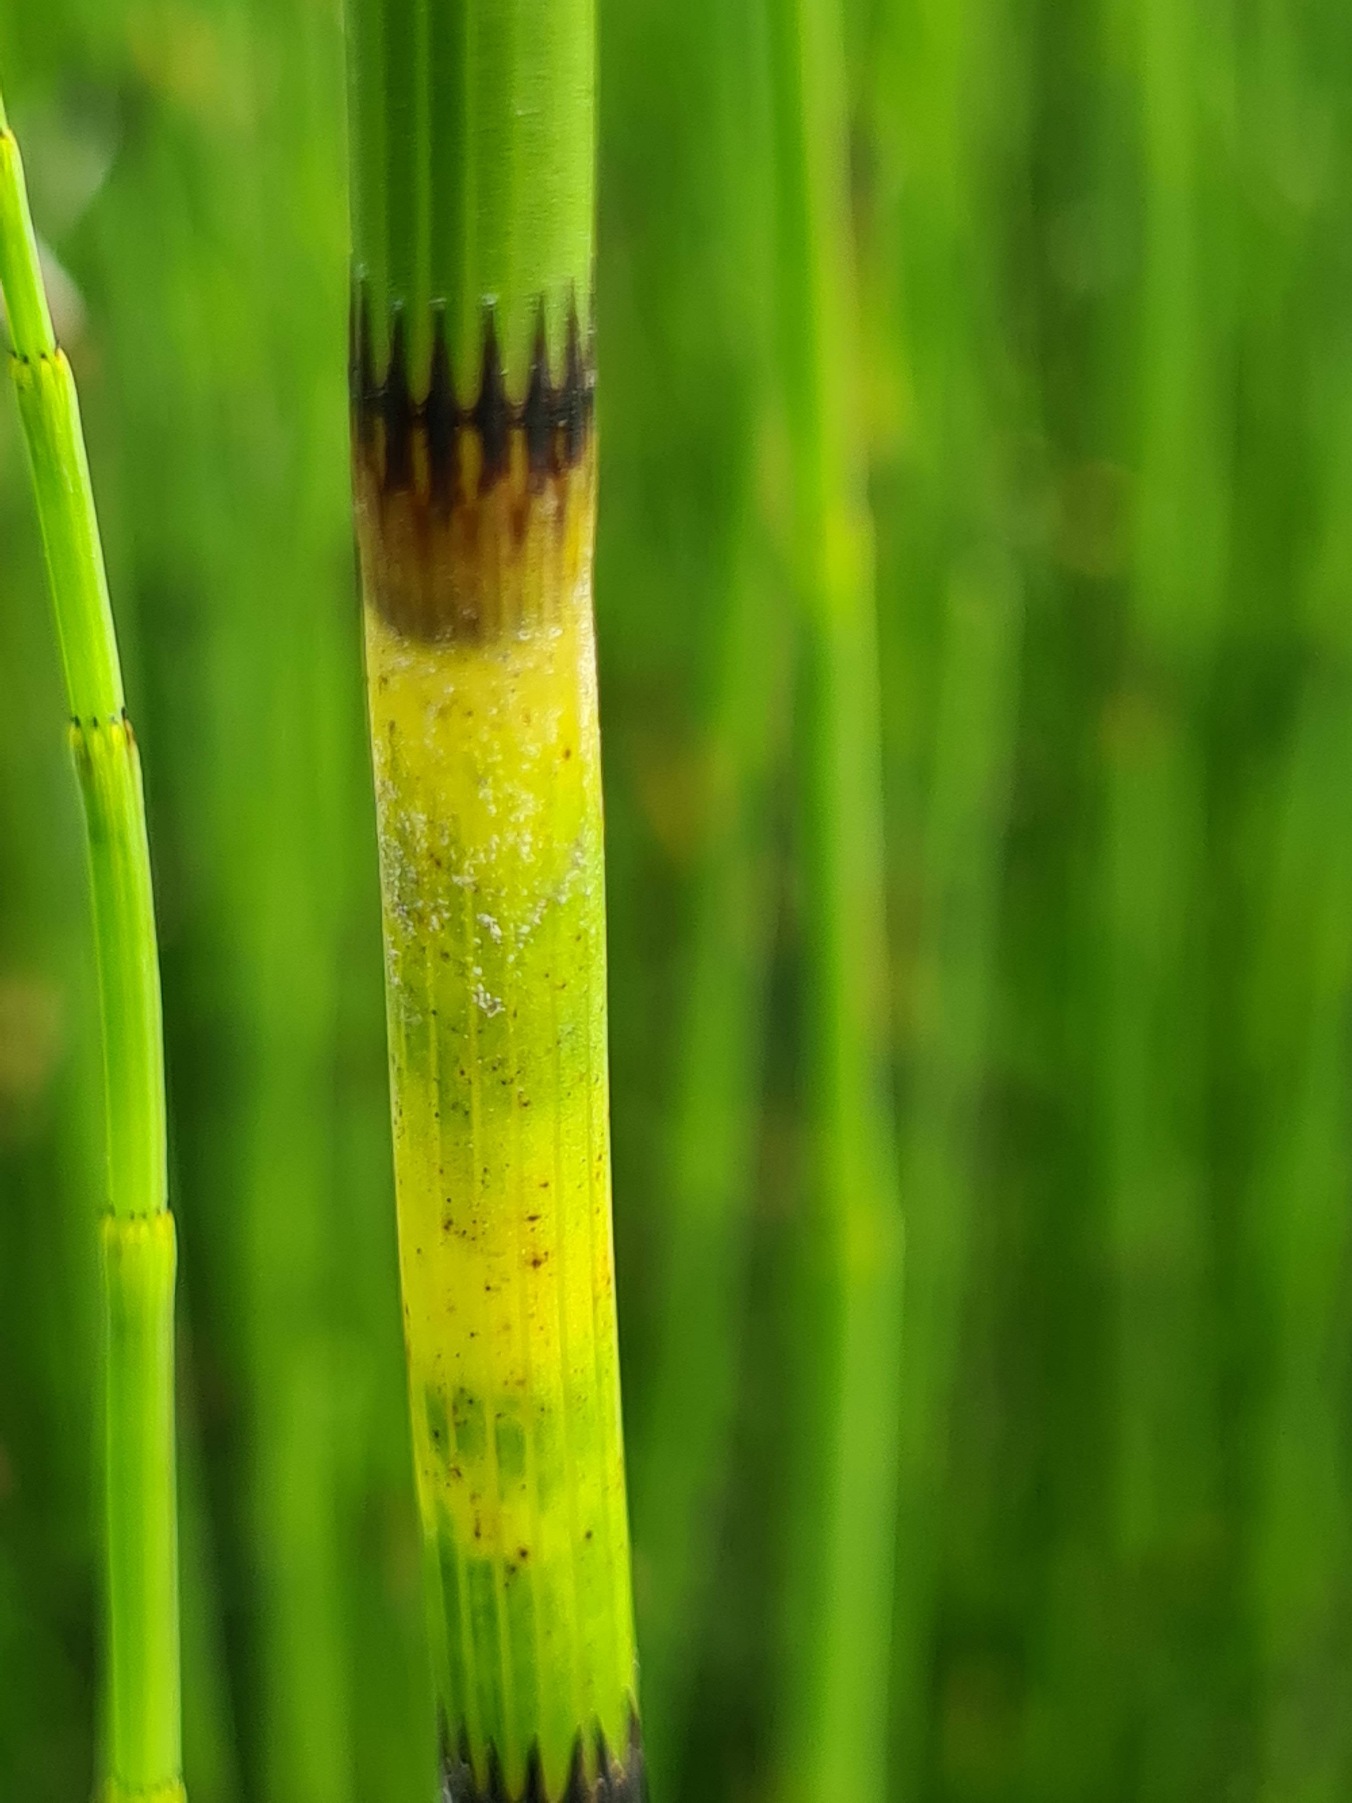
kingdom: Plantae
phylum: Tracheophyta
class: Polypodiopsida
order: Equisetales
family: Equisetaceae
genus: Equisetum
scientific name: Equisetum fluviatile
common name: Dynd-padderok
